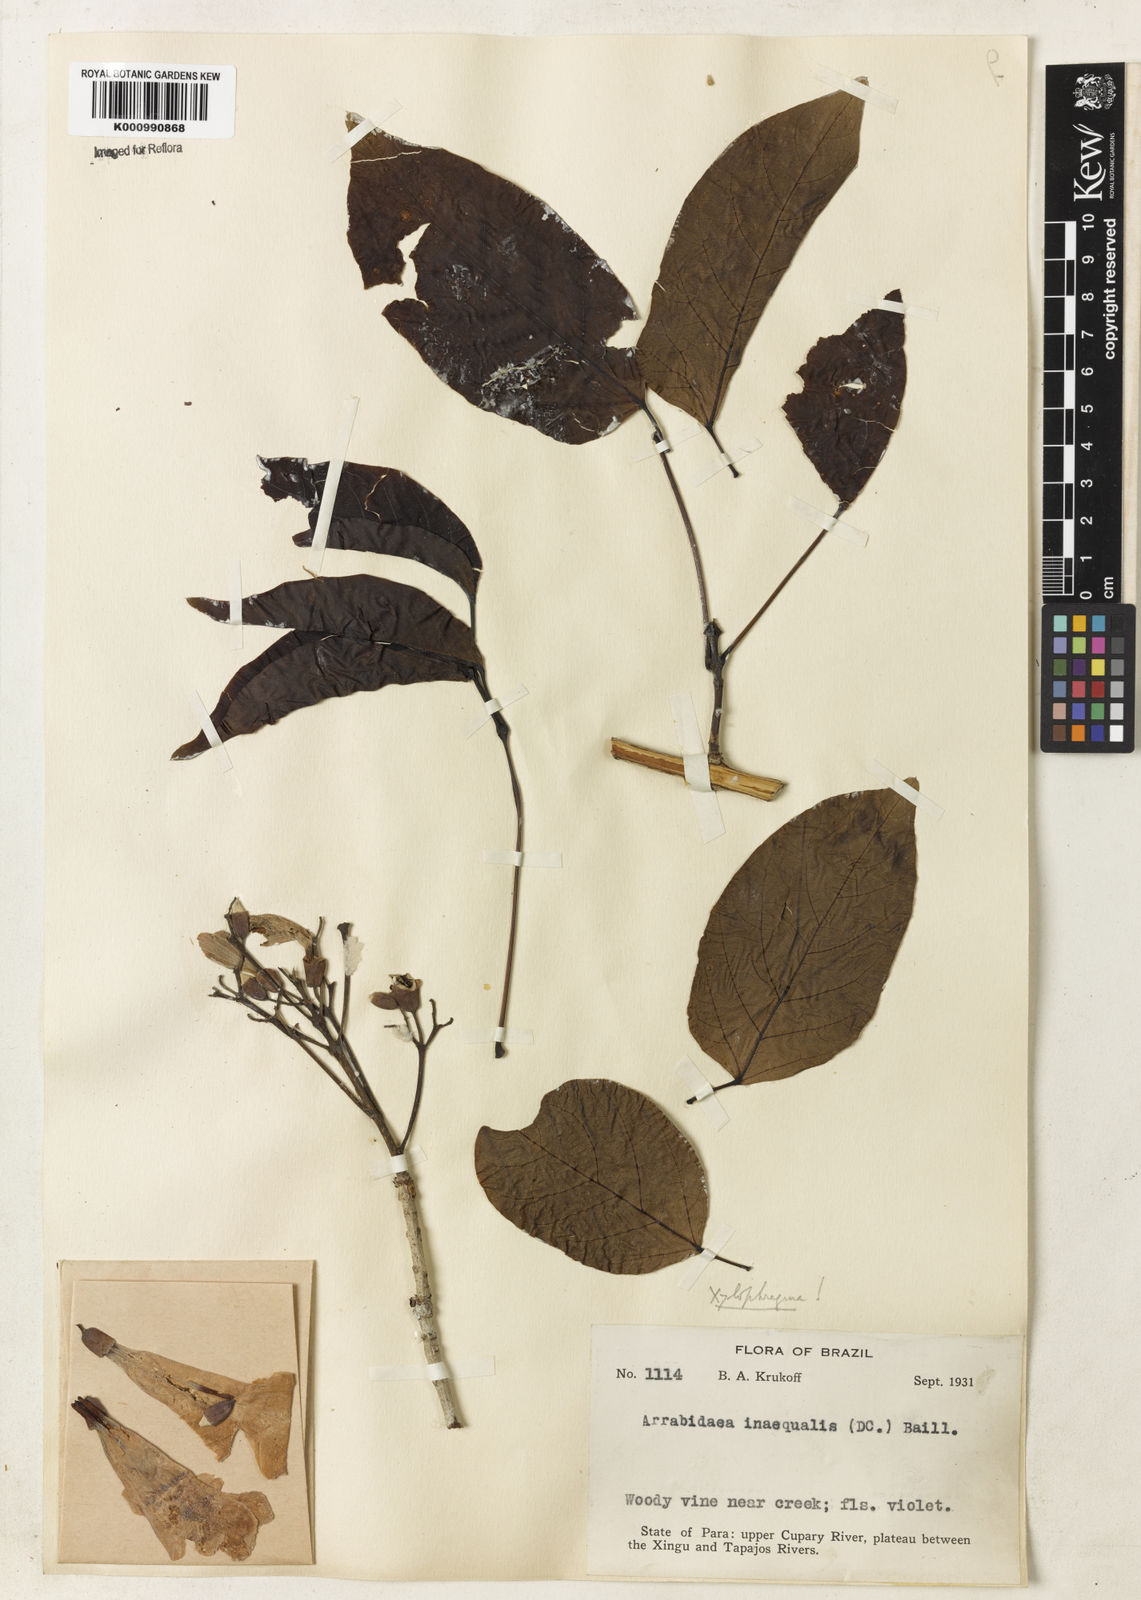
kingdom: Plantae
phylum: Tracheophyta
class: Magnoliopsida
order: Lamiales
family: Bignoniaceae
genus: Xylophragma
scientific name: Xylophragma pratense
